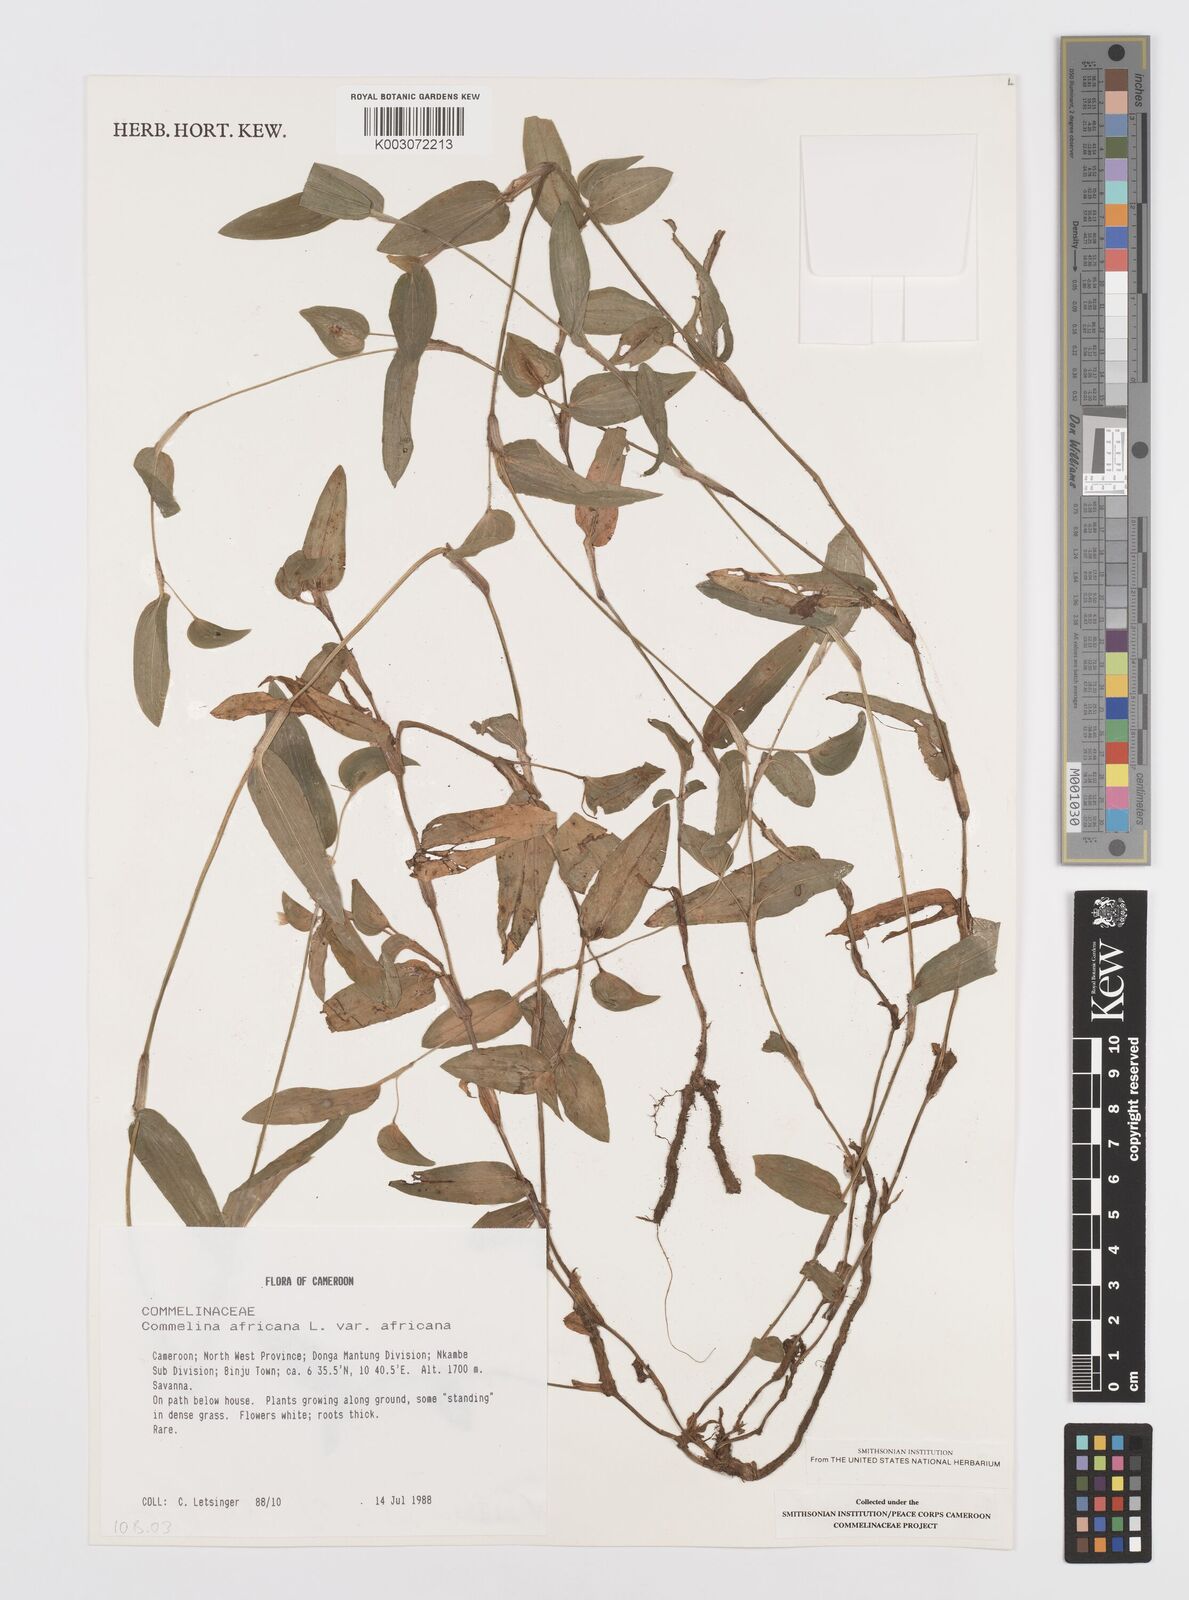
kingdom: Plantae
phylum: Tracheophyta
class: Liliopsida
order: Commelinales
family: Commelinaceae
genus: Commelina
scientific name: Commelina africana
